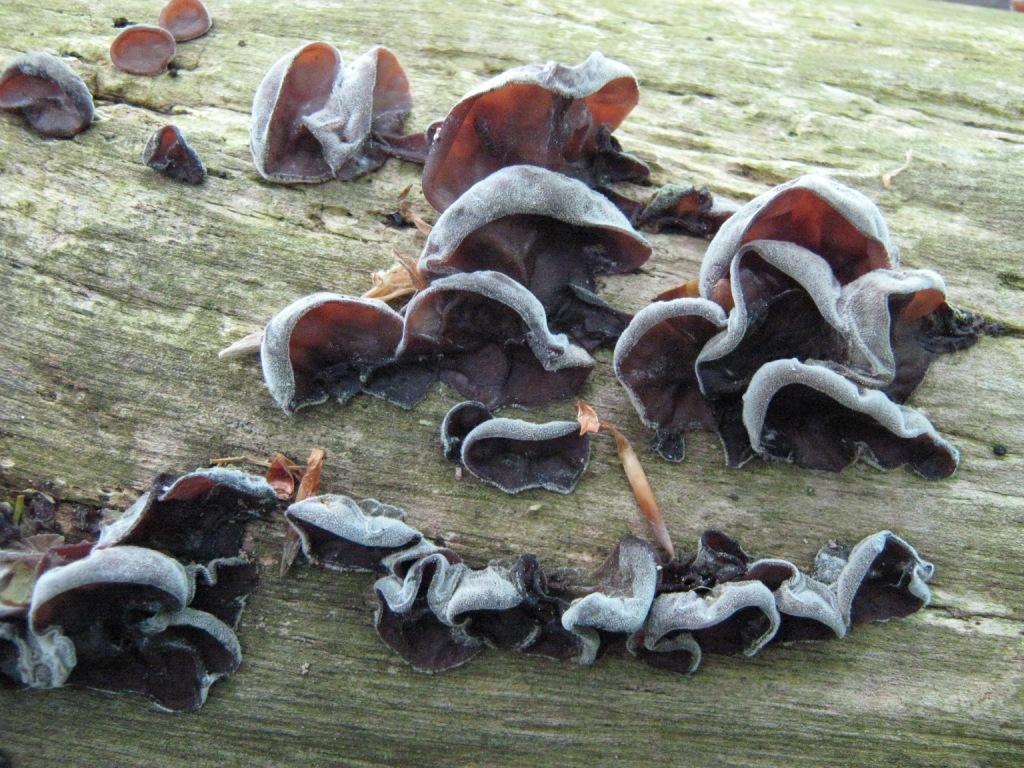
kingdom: Fungi
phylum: Basidiomycota
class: Agaricomycetes
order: Auriculariales
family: Auriculariaceae
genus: Auricularia
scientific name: Auricularia auricula-judae
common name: almindelig judasøre
